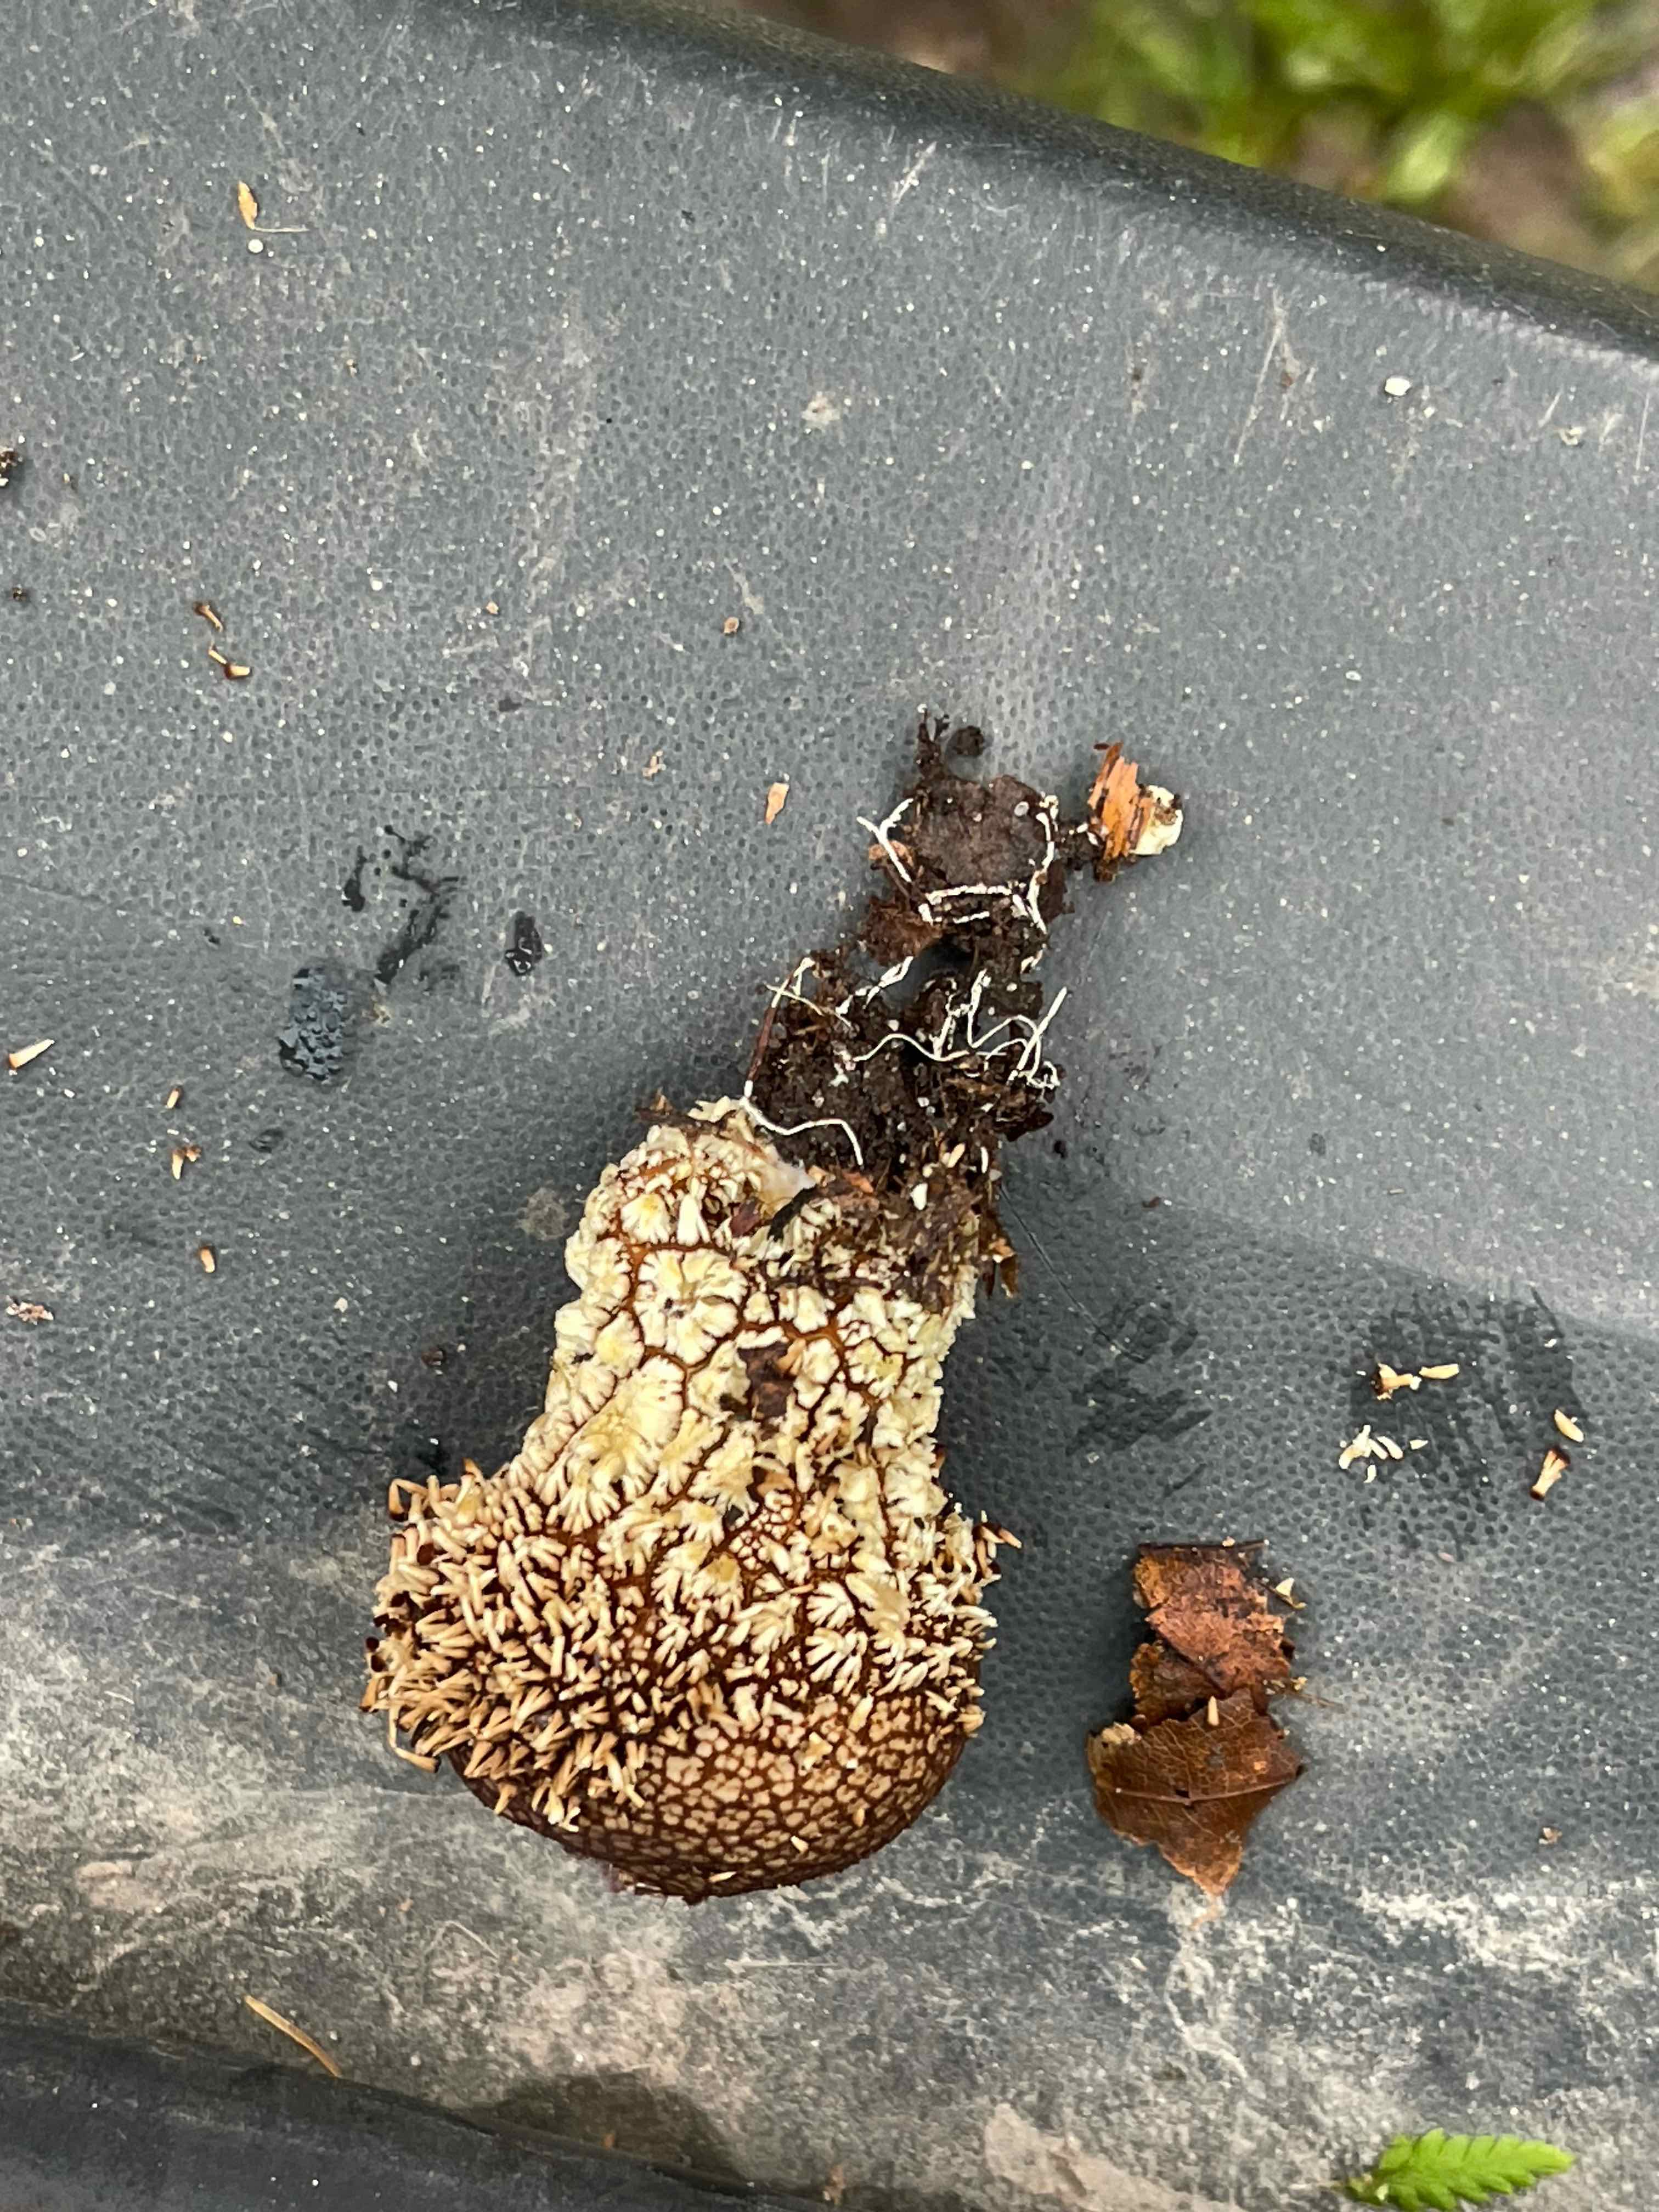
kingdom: Fungi
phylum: Basidiomycota
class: Agaricomycetes
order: Agaricales
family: Lycoperdaceae
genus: Lycoperdon
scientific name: Lycoperdon echinatum
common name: pindsvine-støvbold
